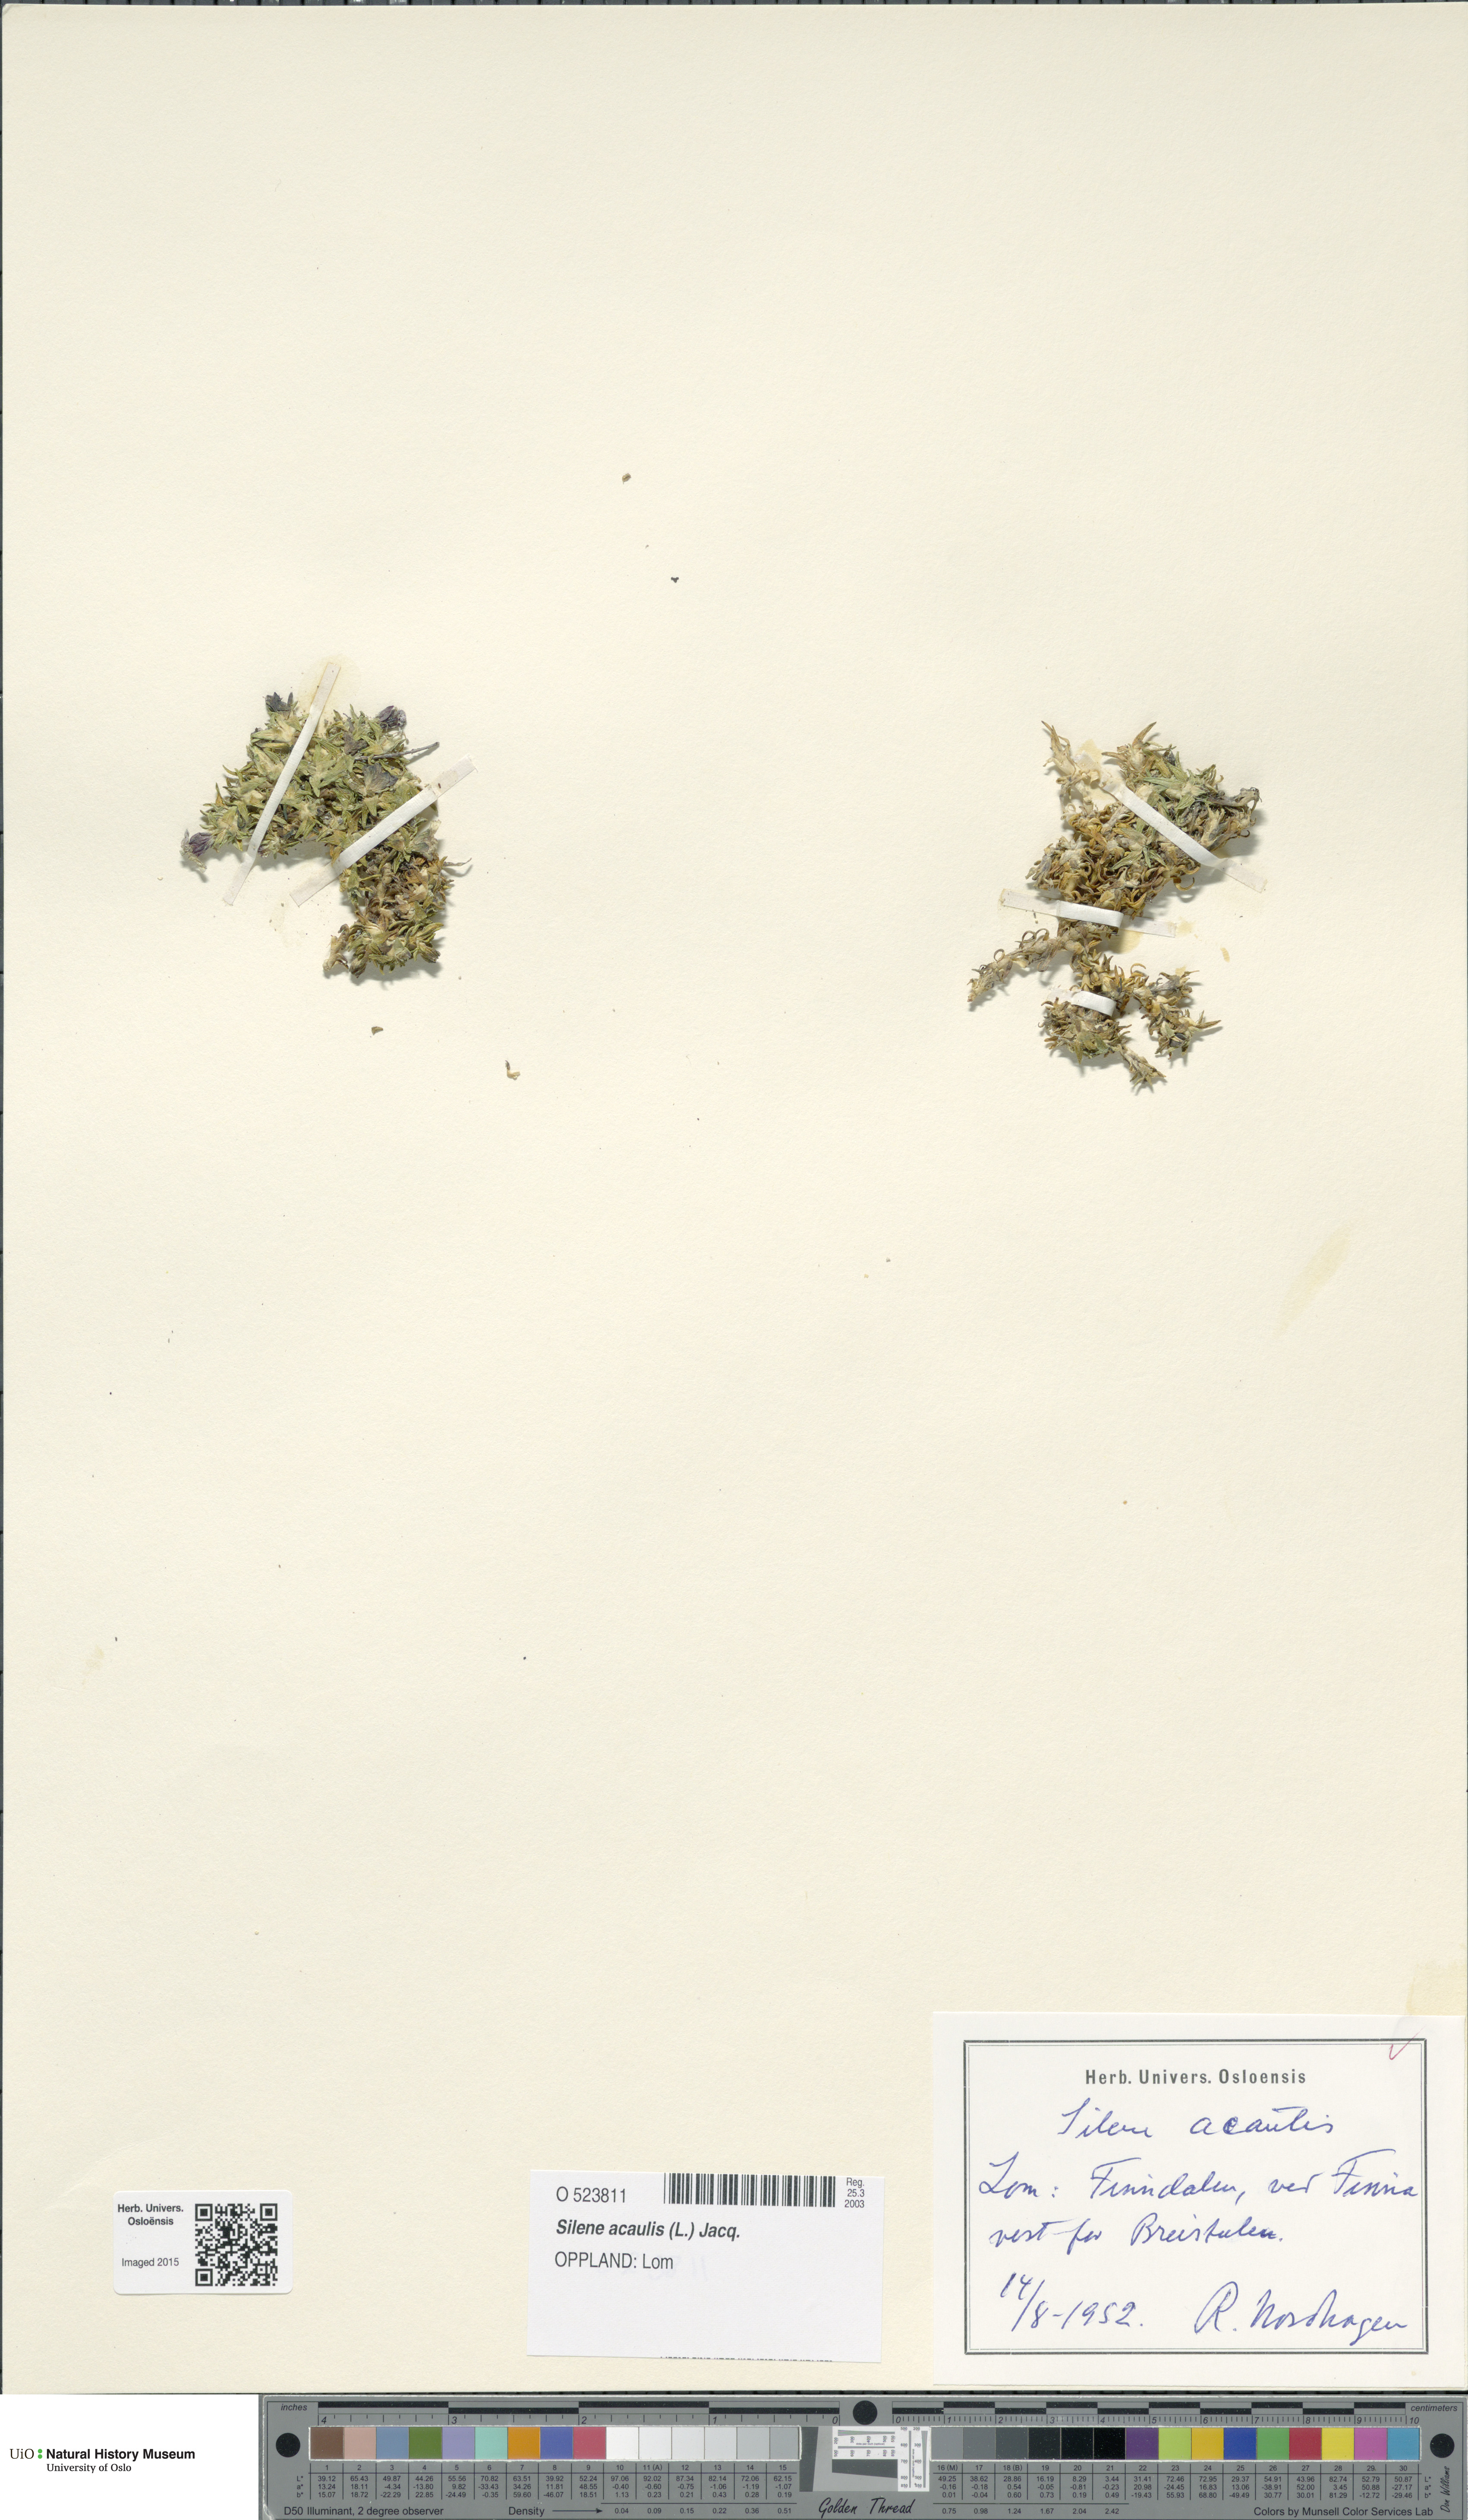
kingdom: Plantae
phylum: Tracheophyta
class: Magnoliopsida
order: Caryophyllales
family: Caryophyllaceae
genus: Silene
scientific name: Silene acaulis
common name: Moss campion
